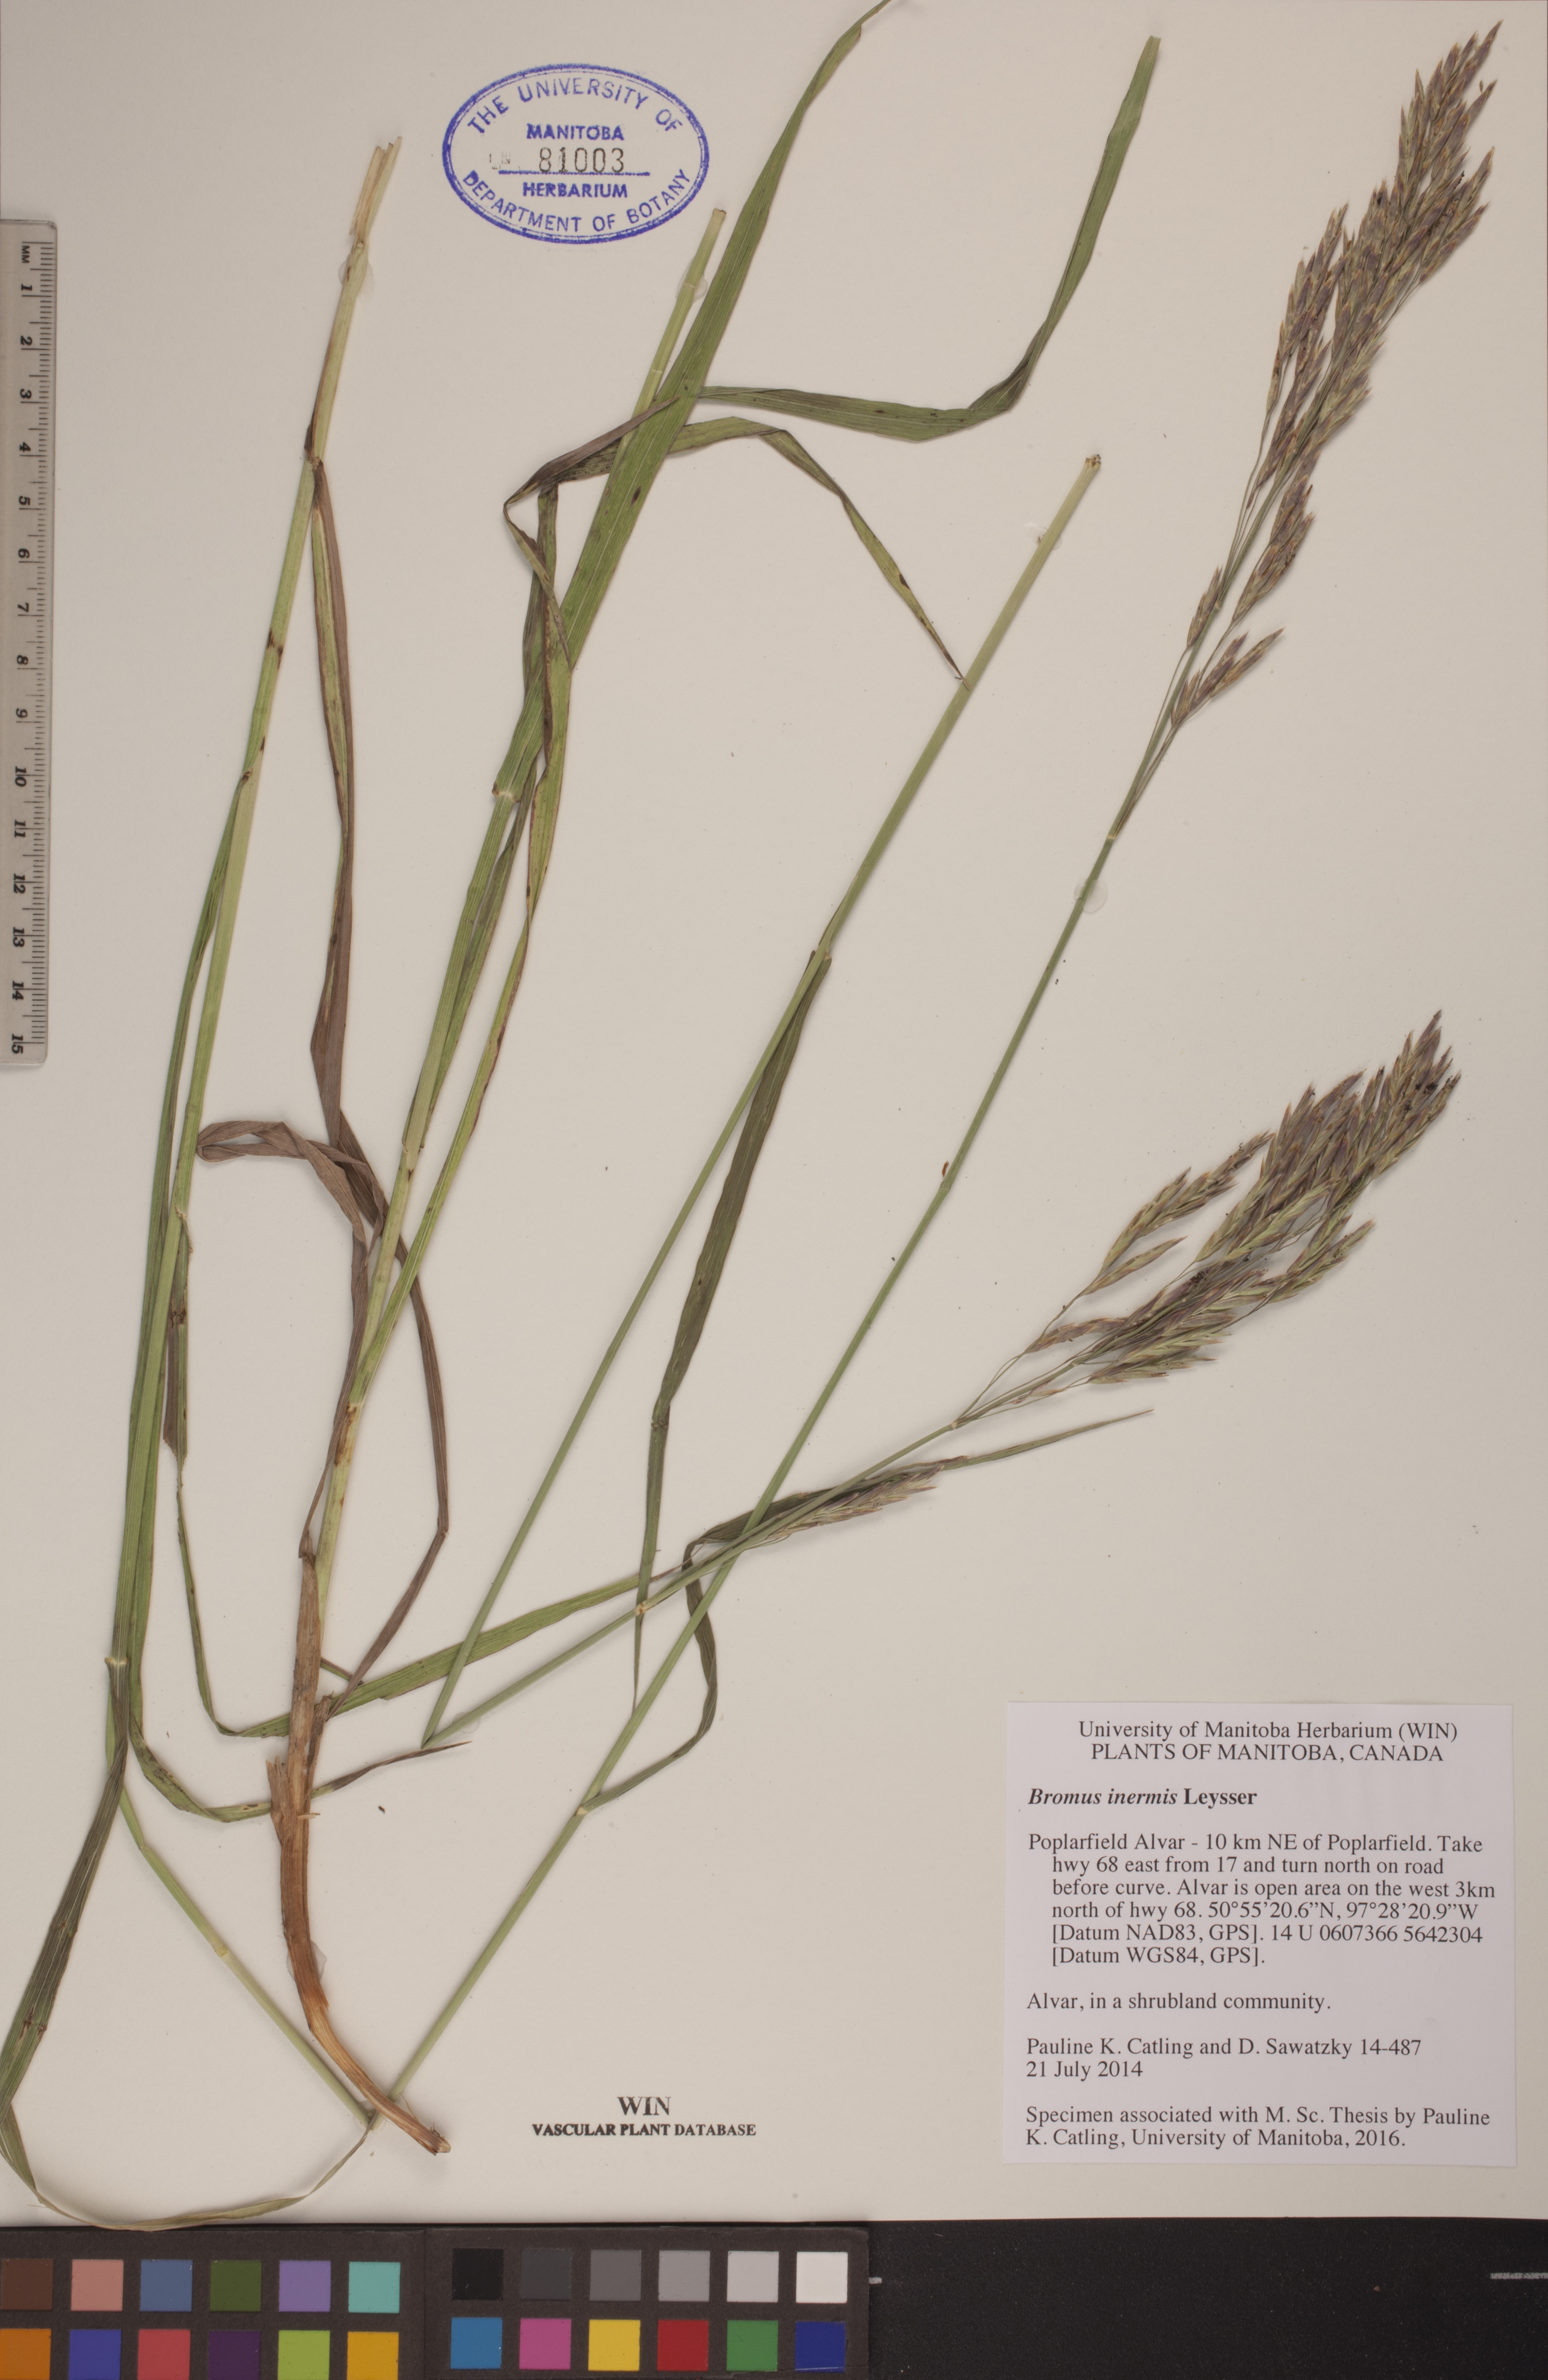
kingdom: Plantae
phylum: Tracheophyta
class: Liliopsida
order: Poales
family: Poaceae
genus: Bromus
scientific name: Bromus inermis
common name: Smooth brome
